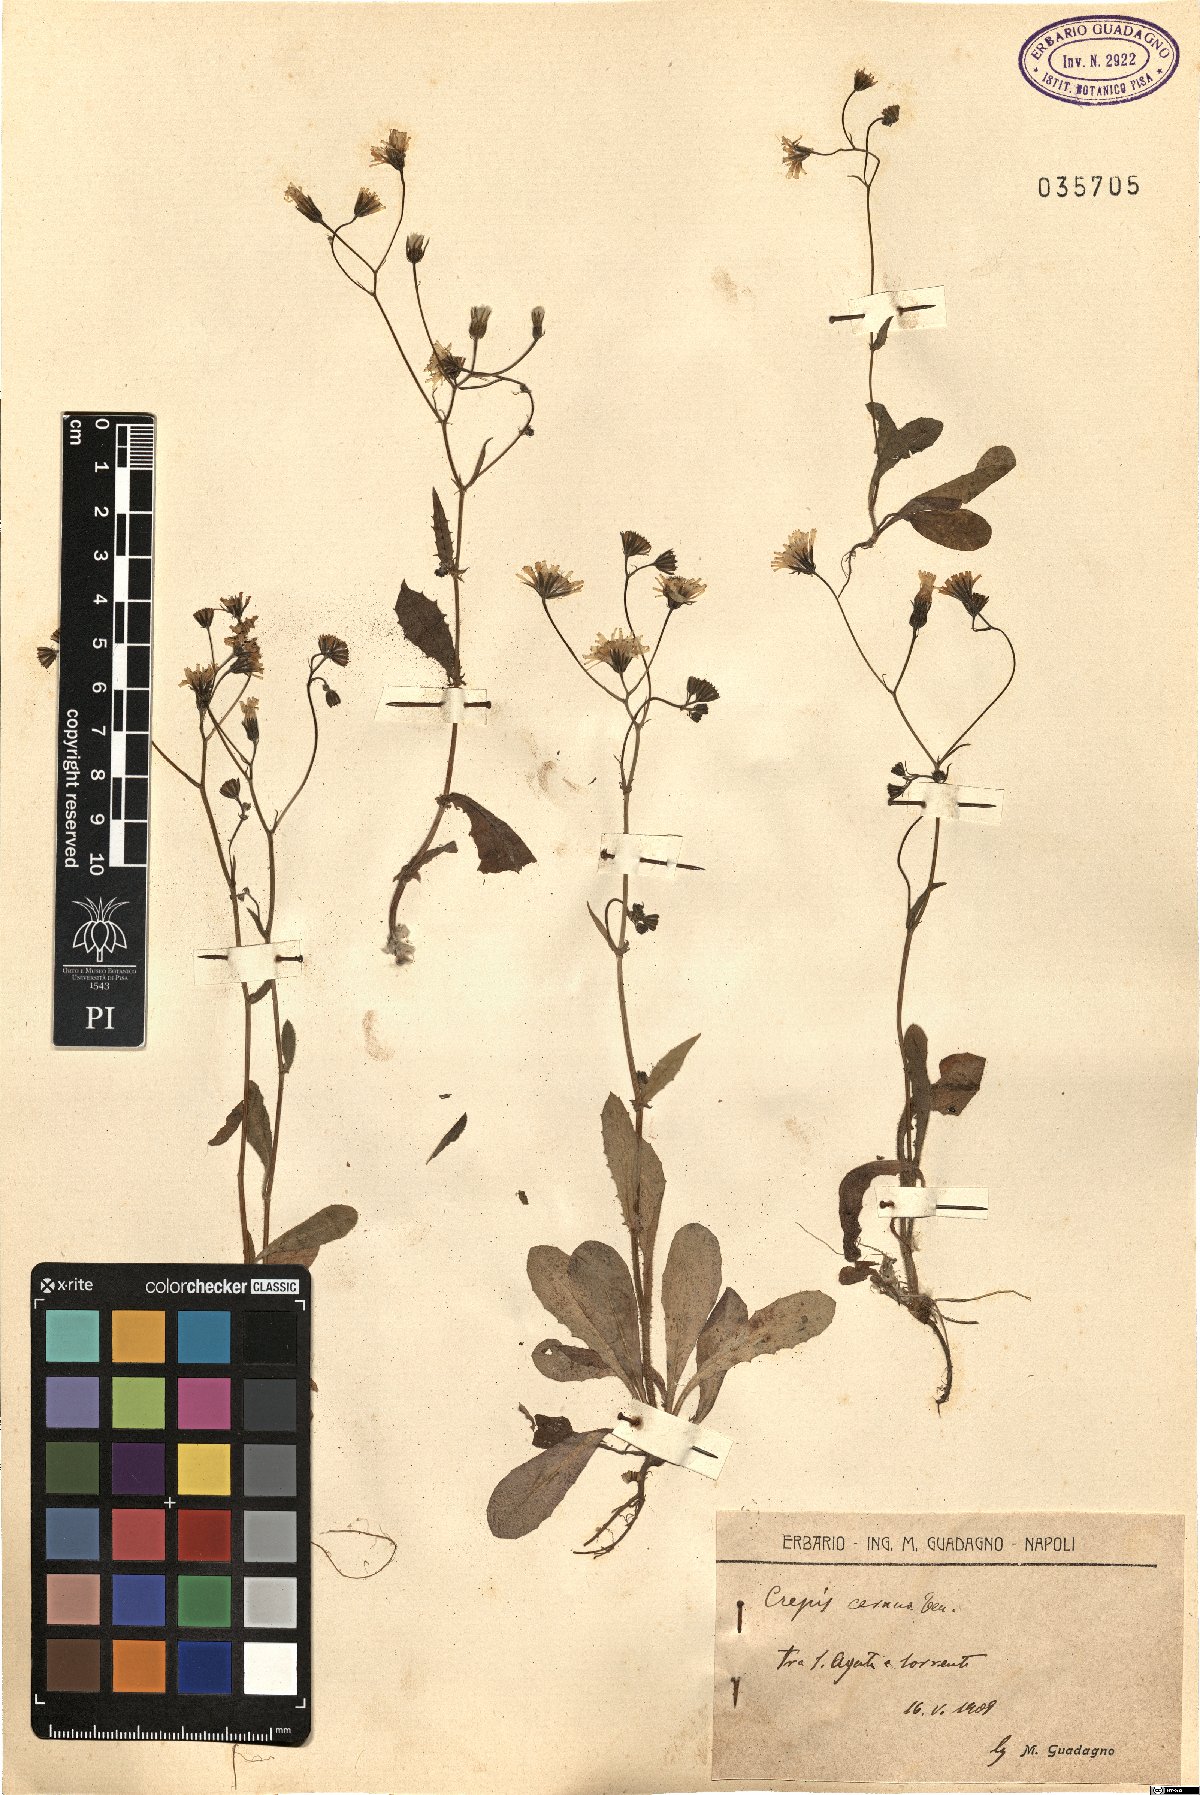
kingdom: Plantae
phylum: Tracheophyta
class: Magnoliopsida
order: Asterales
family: Asteraceae
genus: Crepis
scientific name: Crepis neglecta
